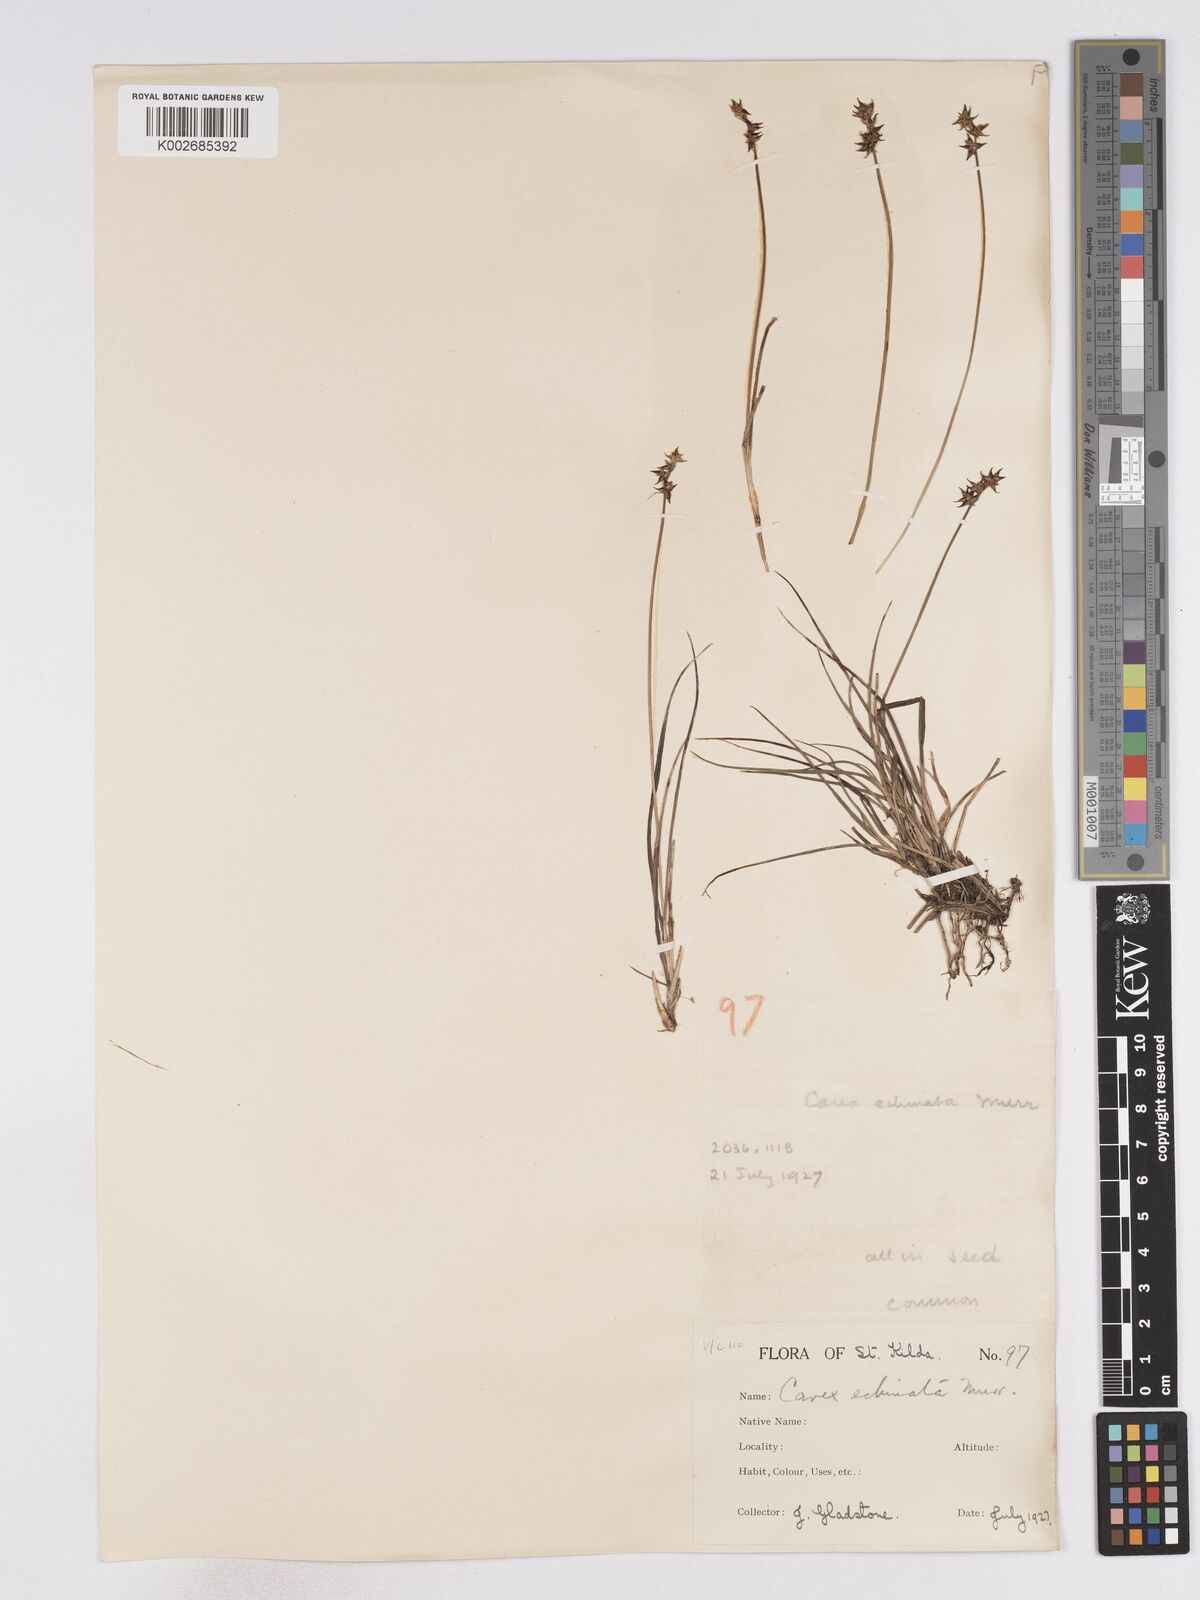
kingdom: Plantae
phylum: Tracheophyta
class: Liliopsida
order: Poales
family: Cyperaceae
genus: Carex
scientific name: Carex echinata
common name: Star sedge
